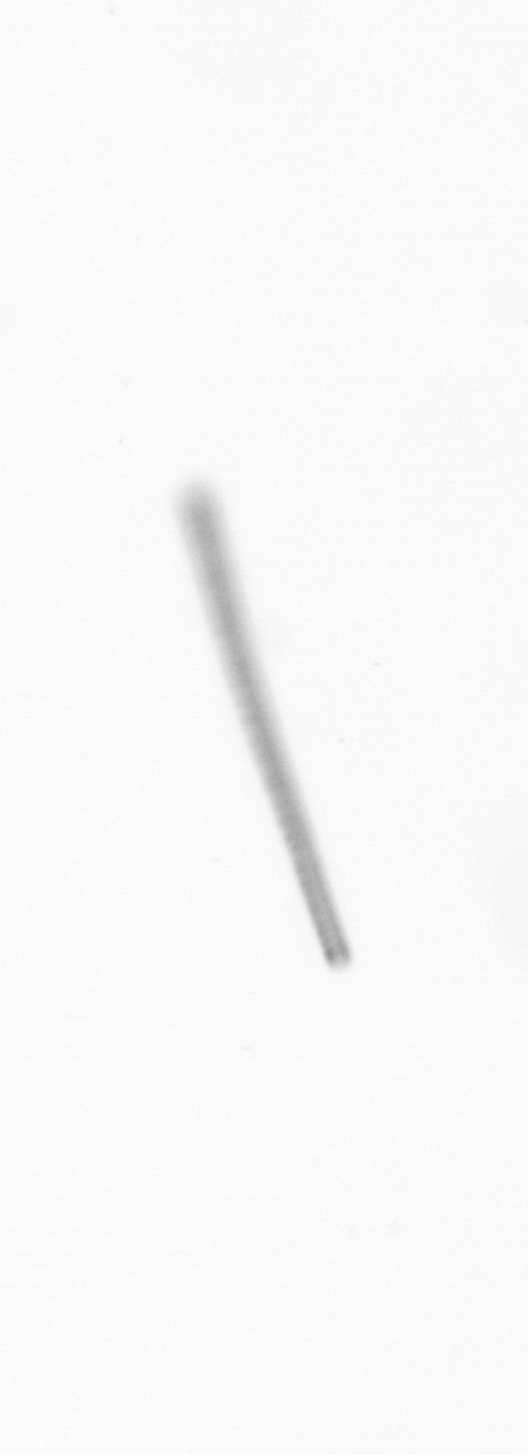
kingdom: Chromista
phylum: Ochrophyta
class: Bacillariophyceae
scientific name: Bacillariophyceae
